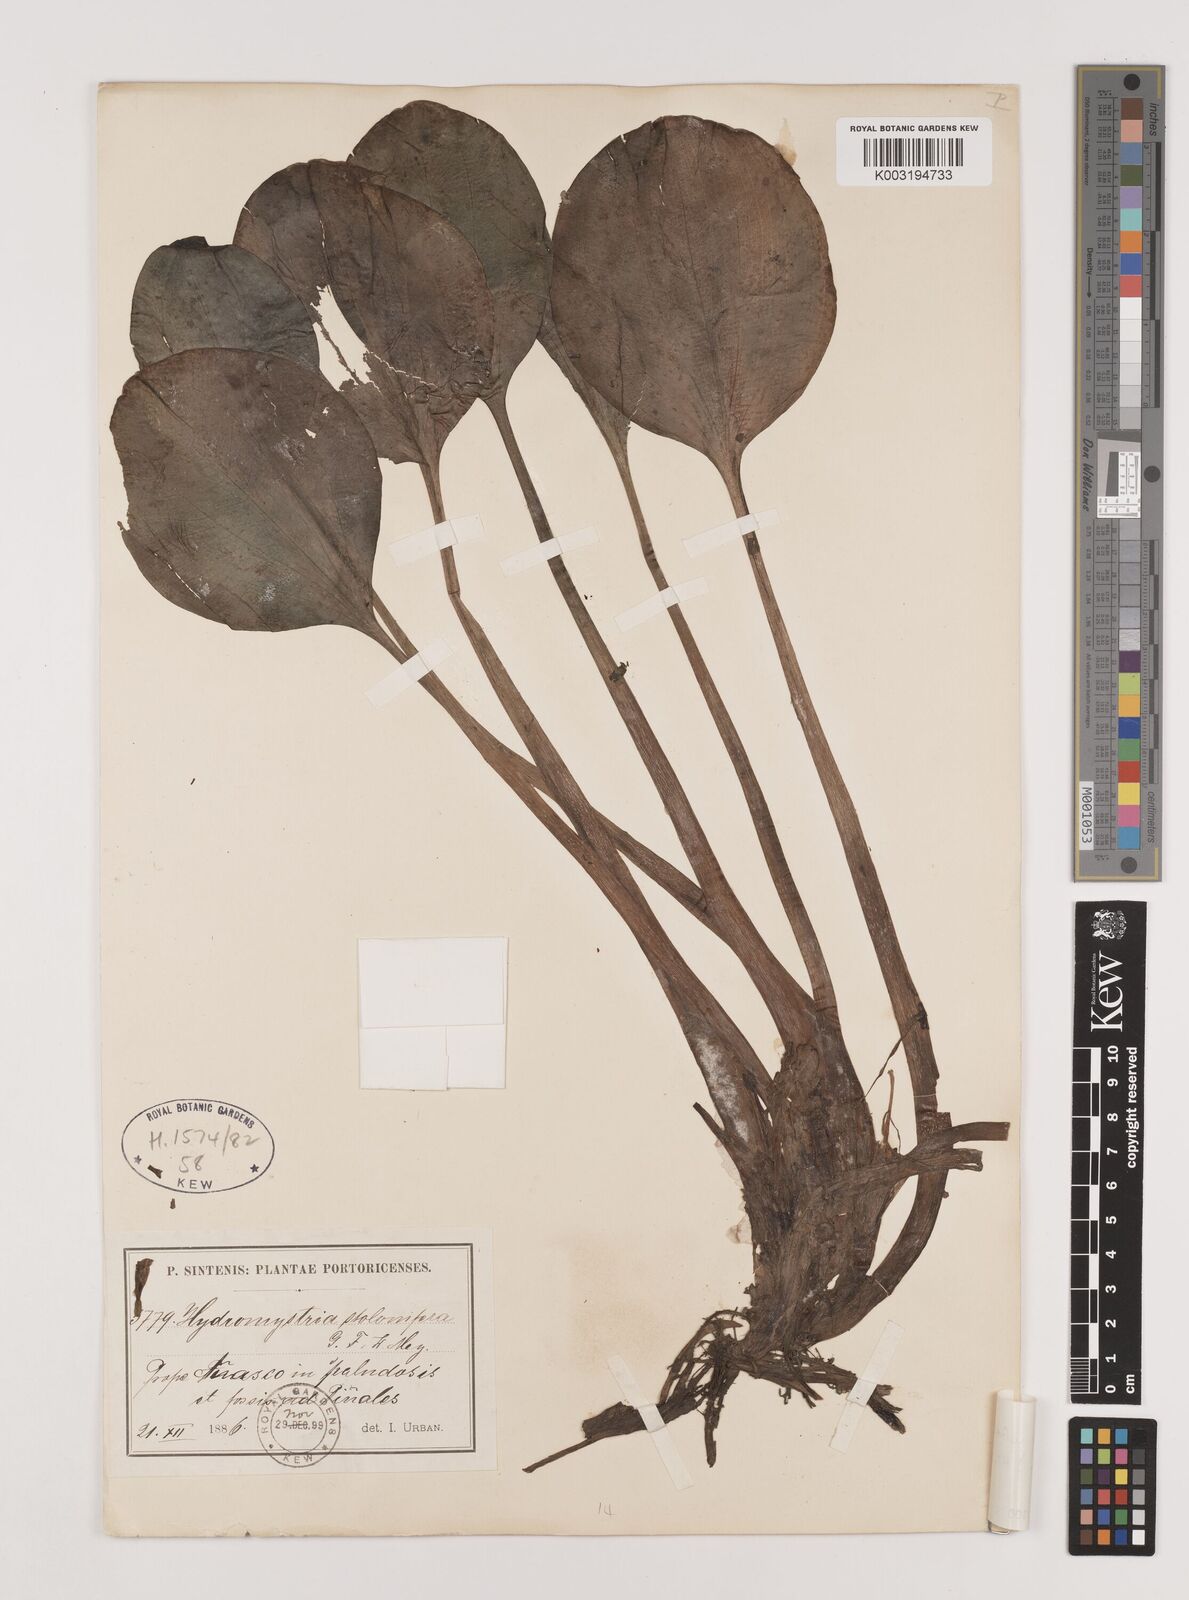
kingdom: Plantae
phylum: Tracheophyta
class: Liliopsida
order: Alismatales
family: Hydrocharitaceae
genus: Hydrocharis
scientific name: Hydrocharis laevigata
